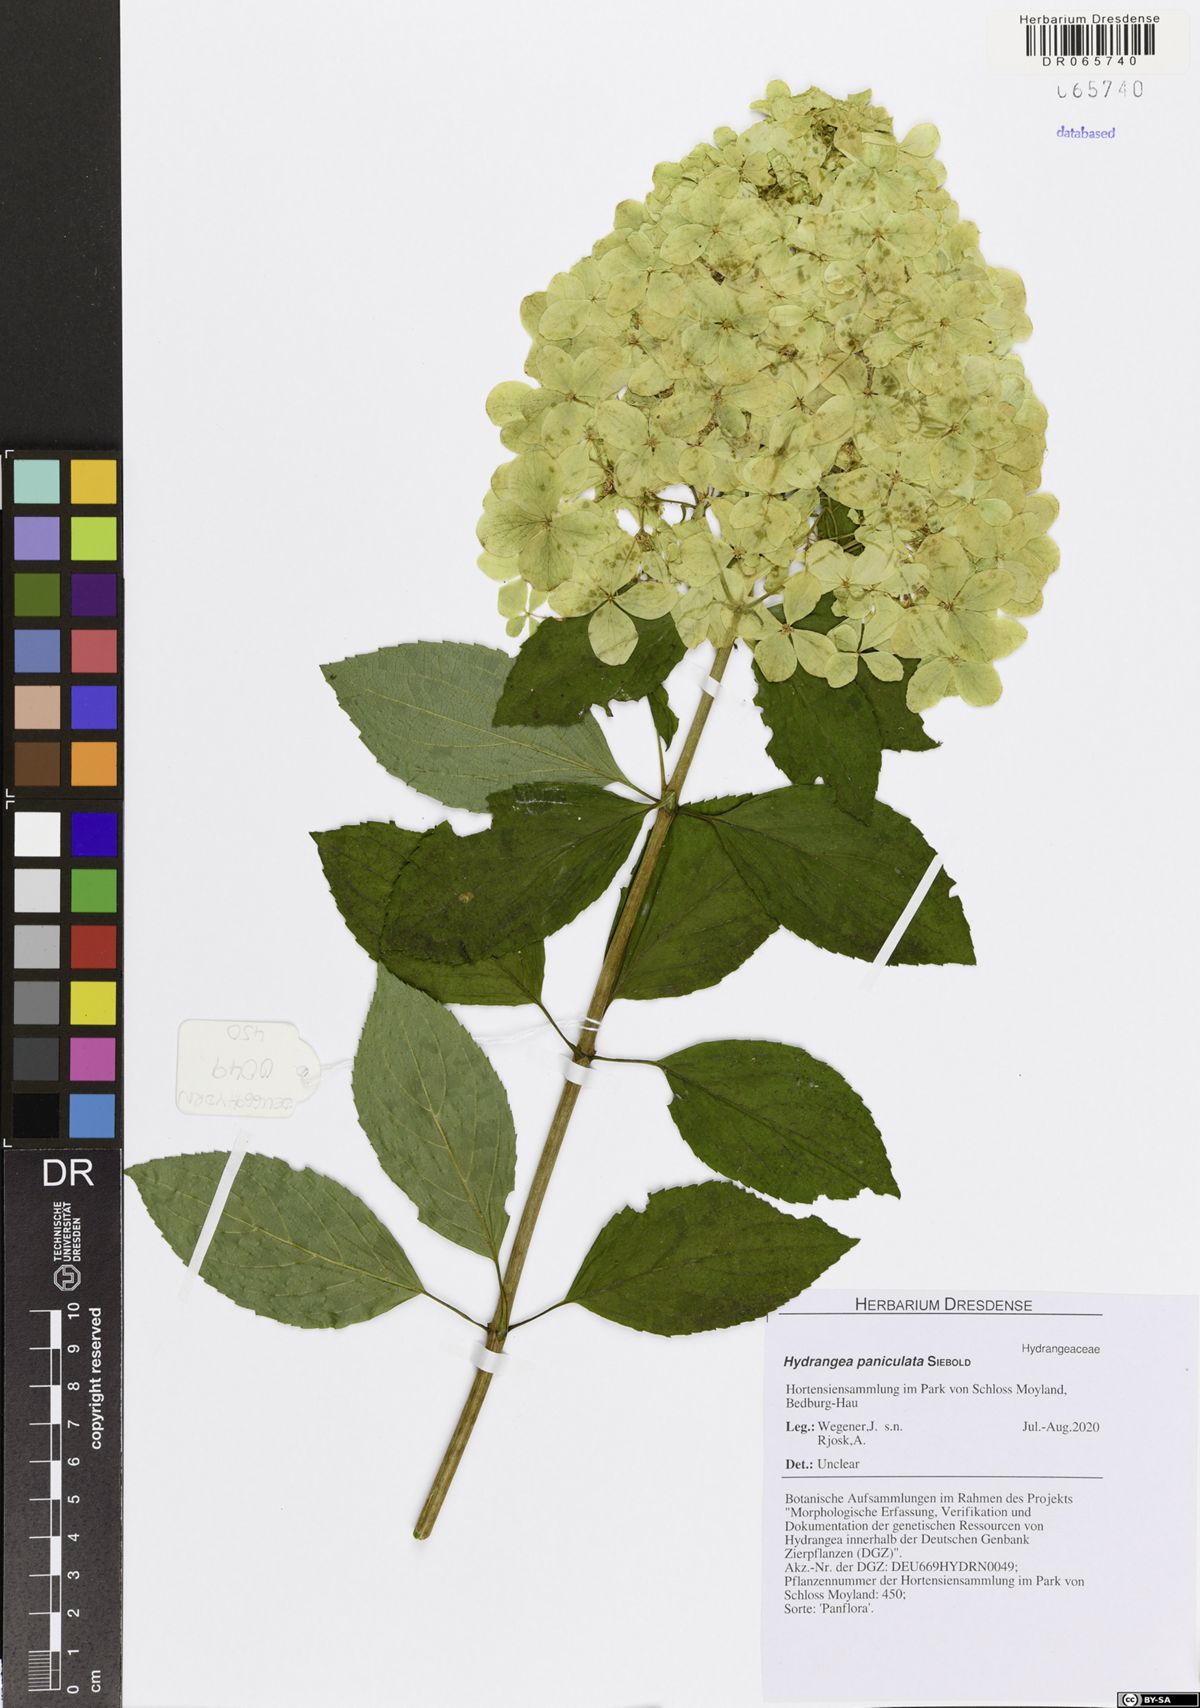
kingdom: Plantae
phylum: Tracheophyta
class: Magnoliopsida
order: Cornales
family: Hydrangeaceae
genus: Hydrangea
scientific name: Hydrangea paniculata
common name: Panicled hydrangea
